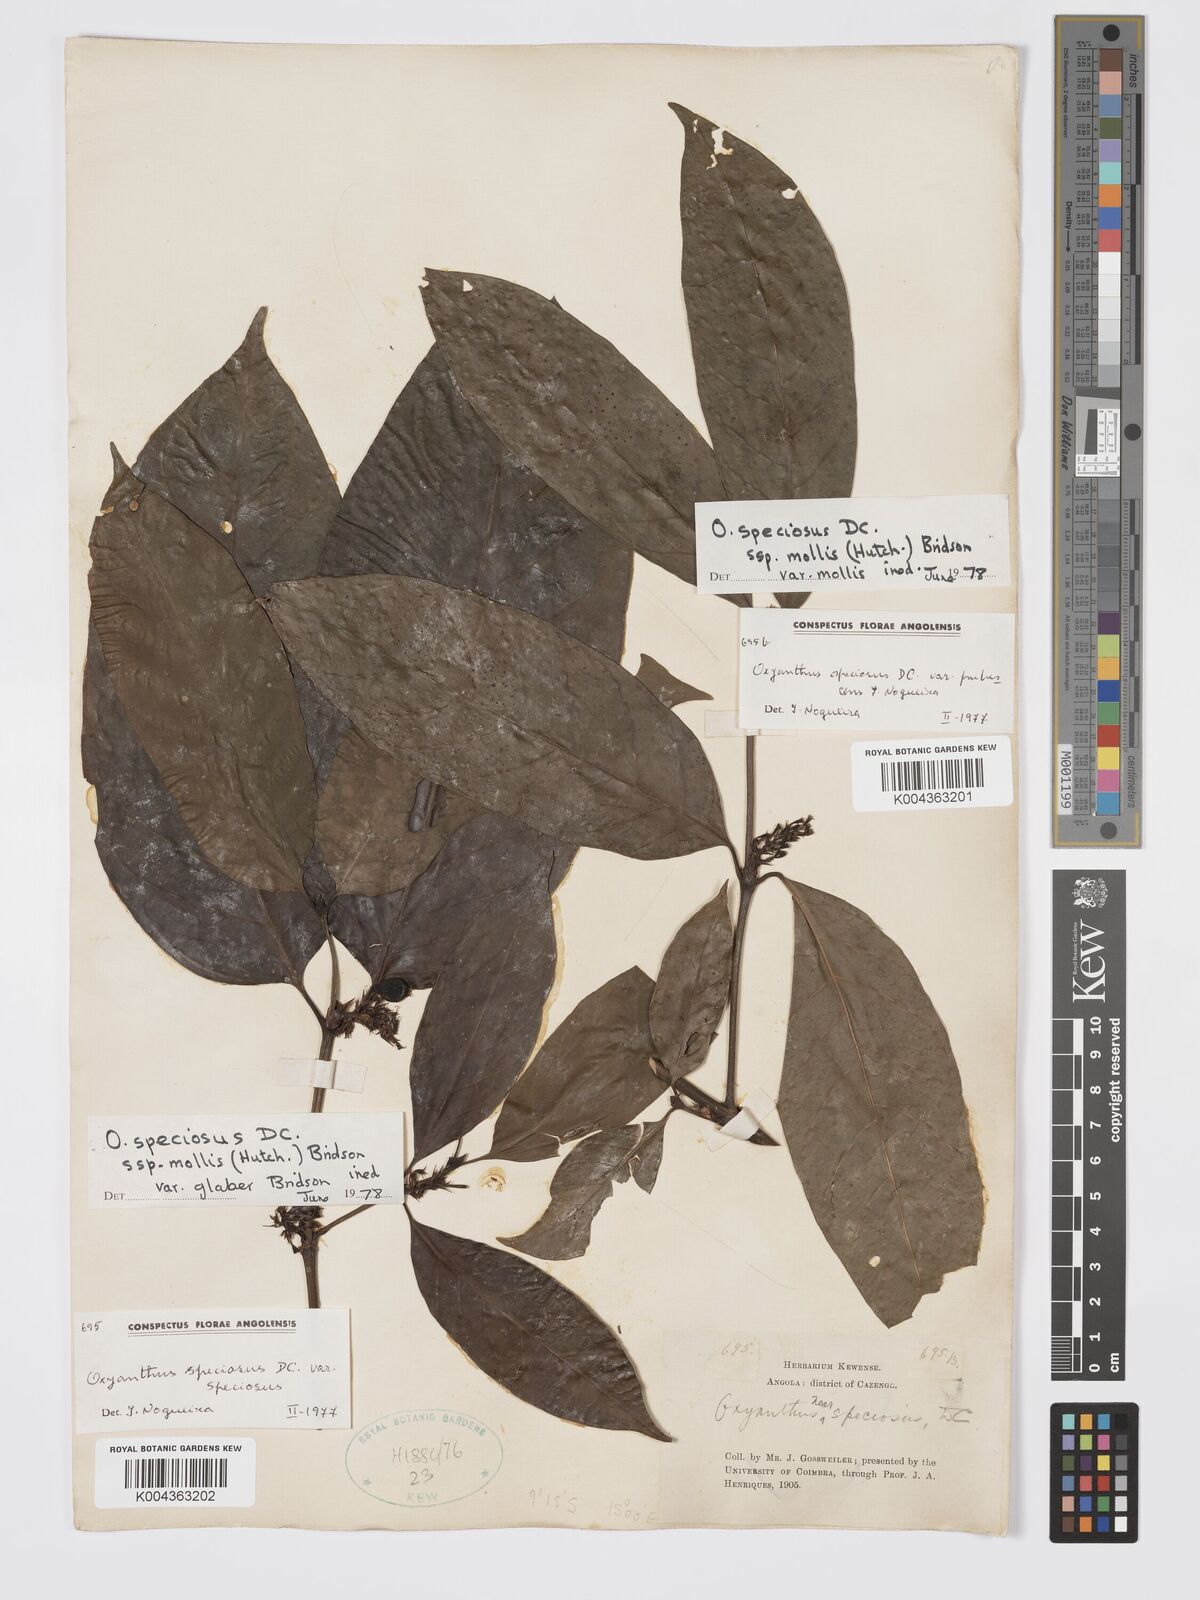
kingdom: Plantae
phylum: Tracheophyta
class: Magnoliopsida
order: Gentianales
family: Rubiaceae
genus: Oxyanthus
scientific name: Oxyanthus speciosus
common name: Whipstick loquat
